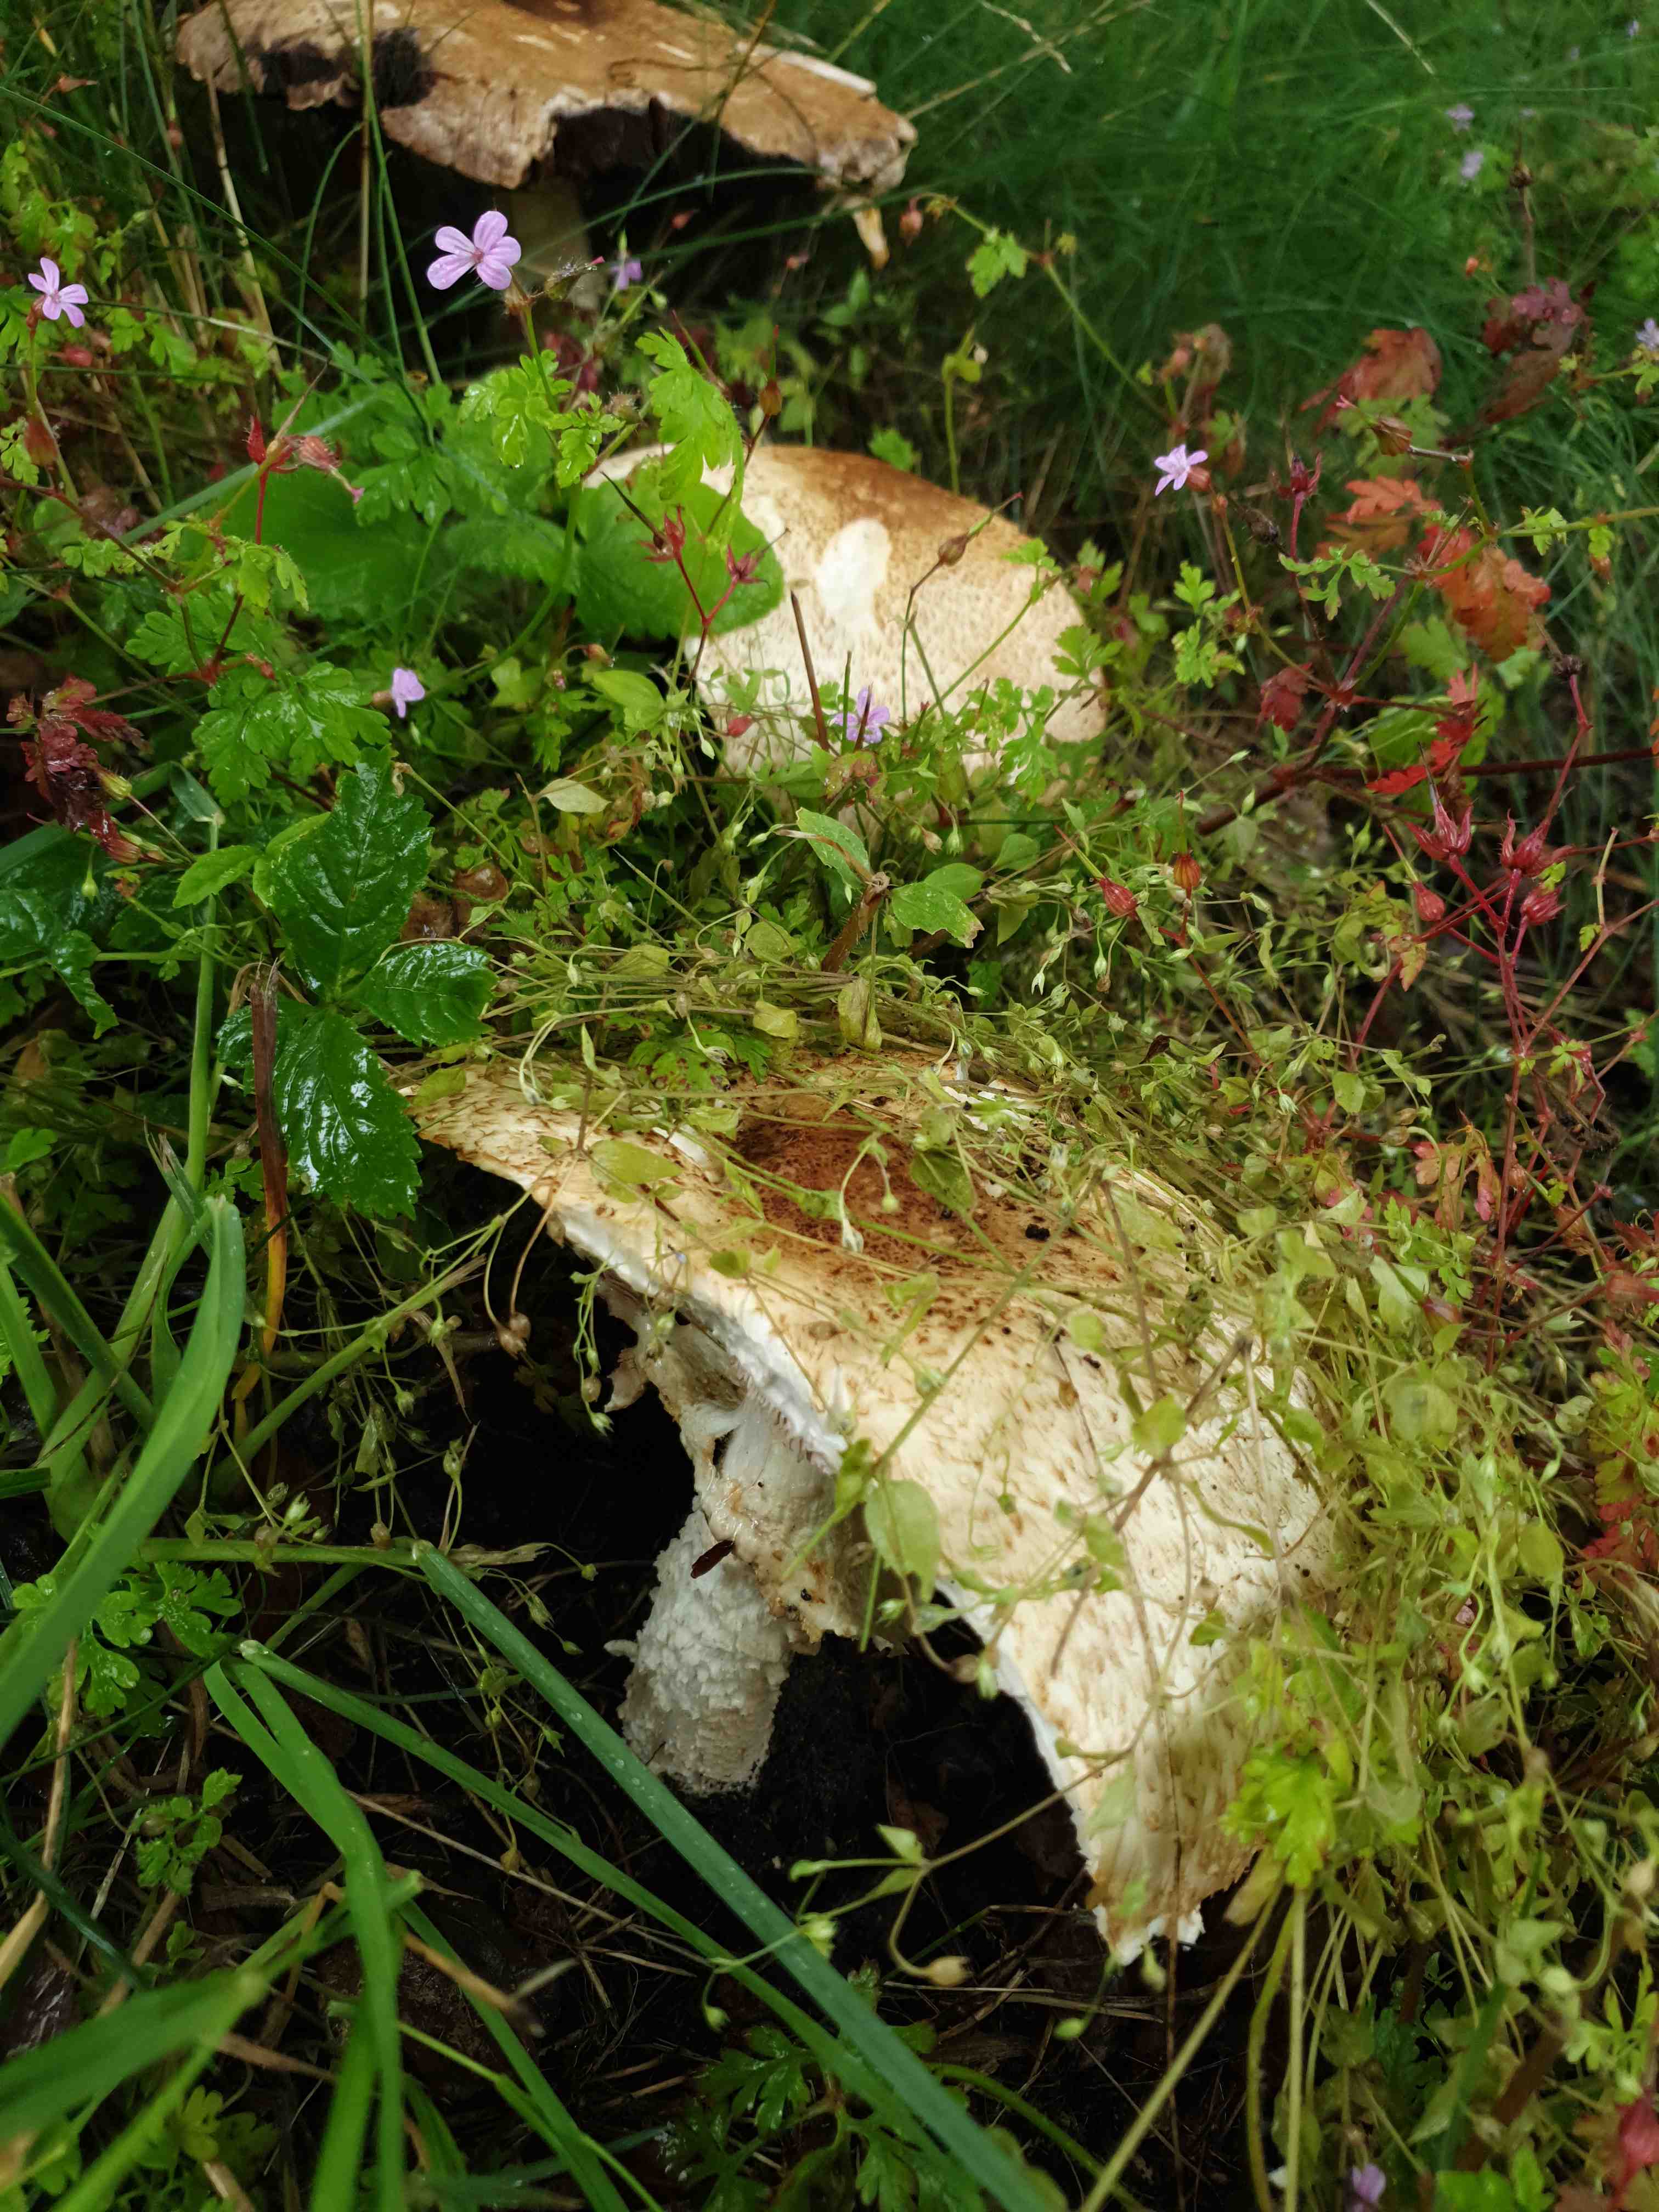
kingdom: Fungi
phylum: Basidiomycota
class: Agaricomycetes
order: Agaricales
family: Agaricaceae
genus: Agaricus
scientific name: Agaricus augustus
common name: prægtig champignon
